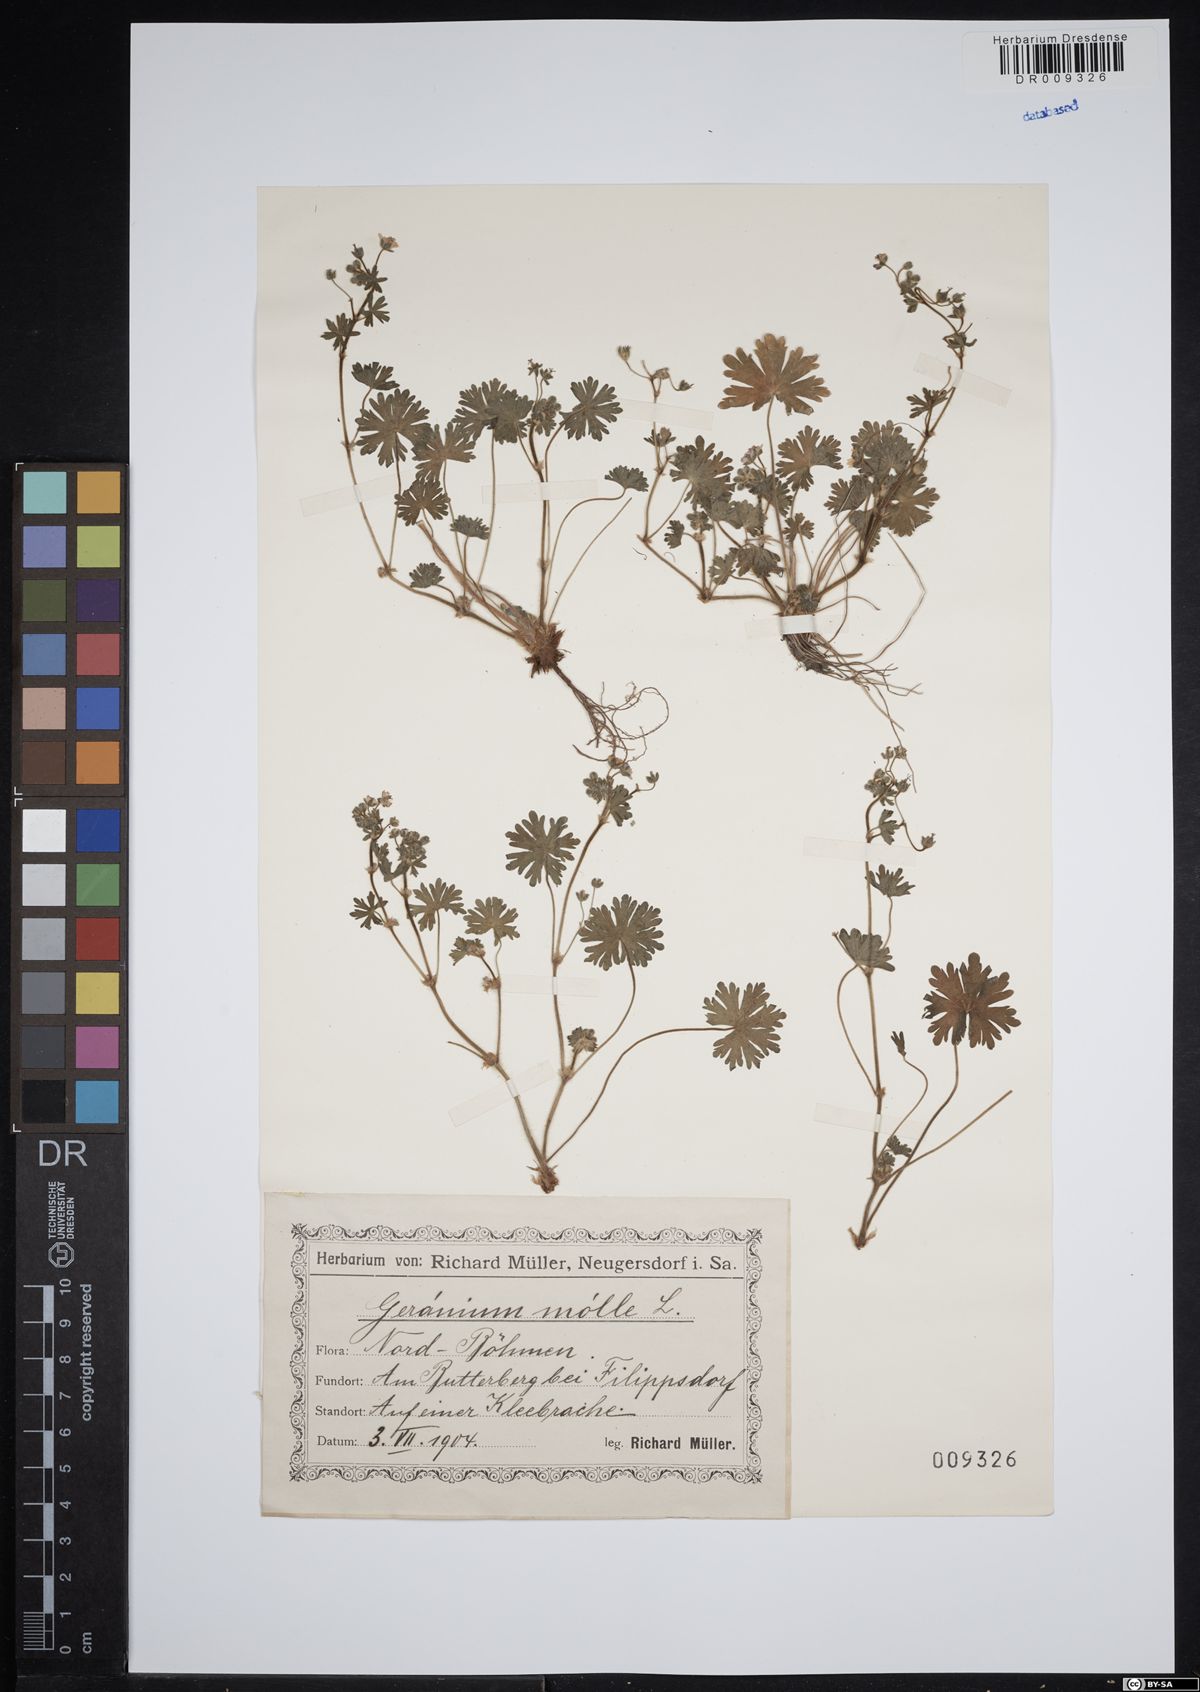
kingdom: Plantae
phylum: Tracheophyta
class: Magnoliopsida
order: Geraniales
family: Geraniaceae
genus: Geranium
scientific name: Geranium molle
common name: Dove's-foot crane's-bill
